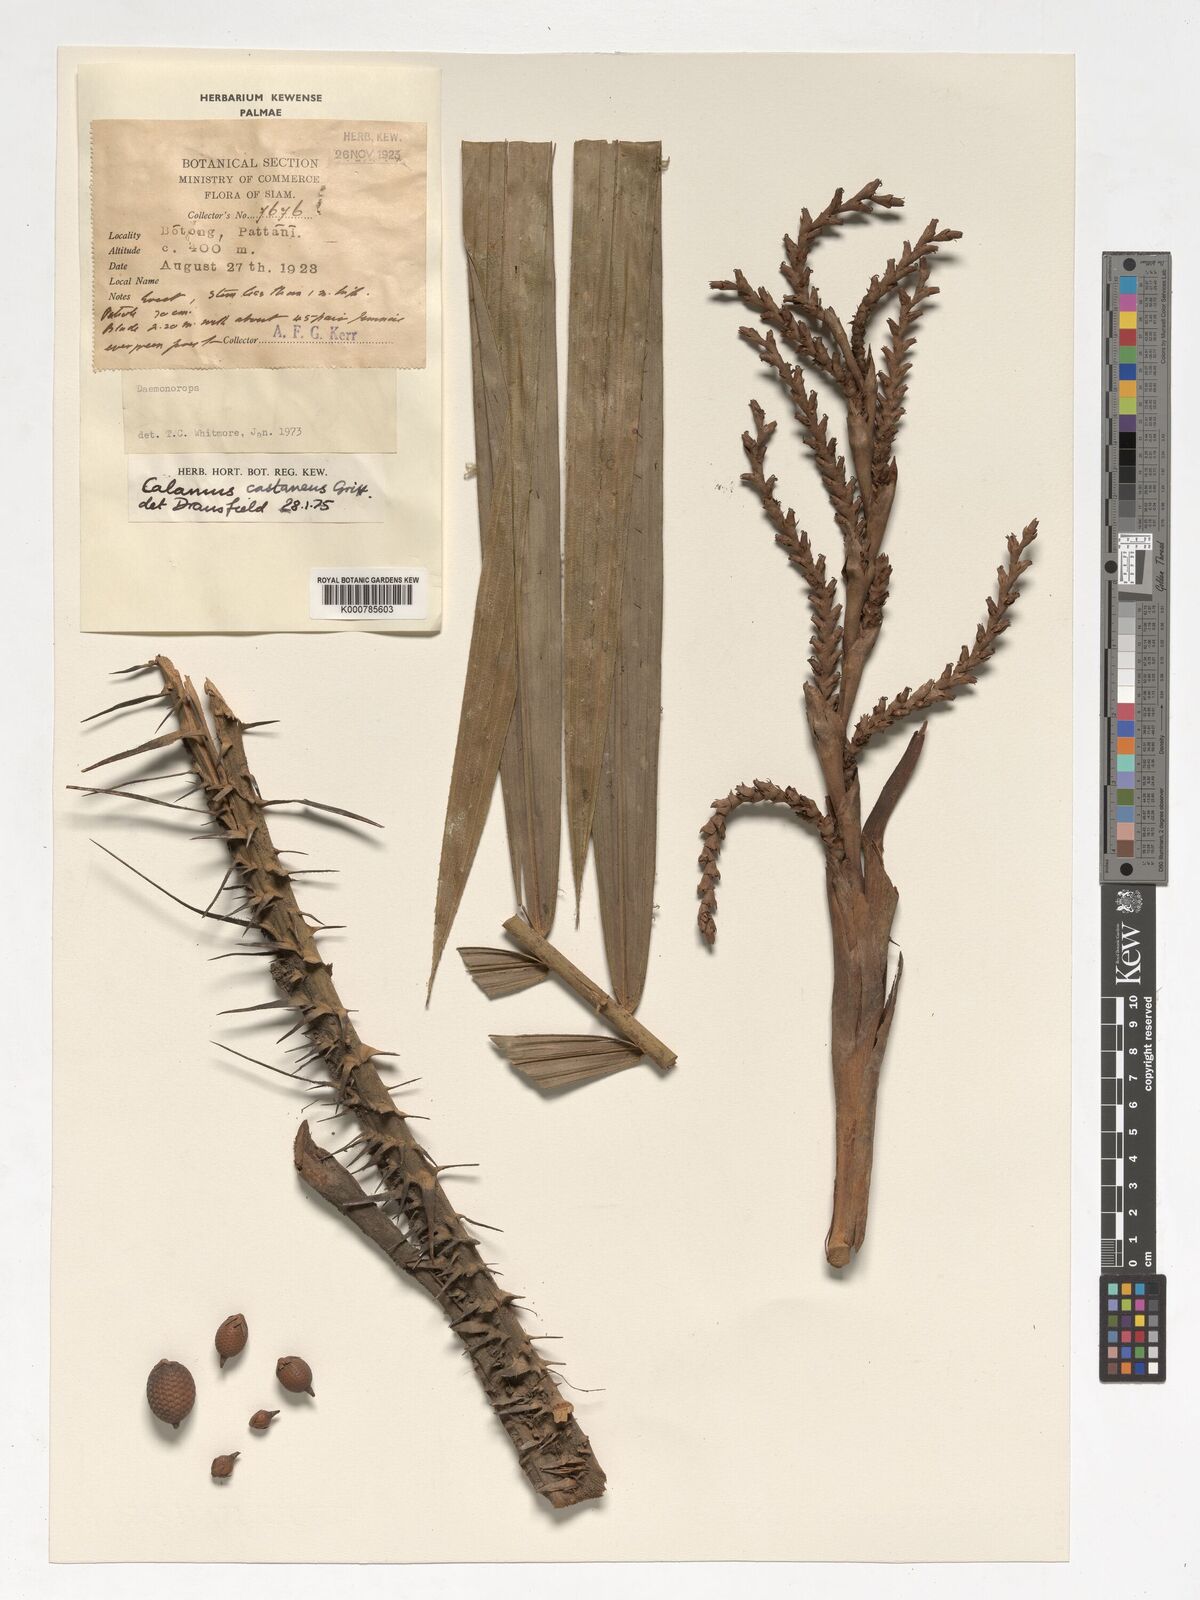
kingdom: Plantae
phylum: Tracheophyta
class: Liliopsida
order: Arecales
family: Arecaceae
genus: Calamus
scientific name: Calamus castaneus
